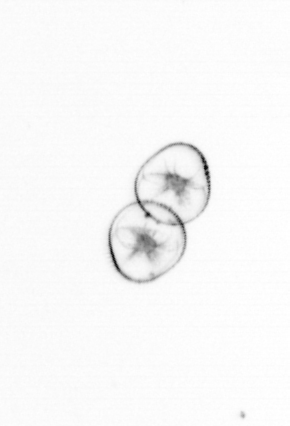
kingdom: Chromista
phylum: Myzozoa
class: Dinophyceae
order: Noctilucales
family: Noctilucaceae
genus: Noctiluca
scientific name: Noctiluca scintillans
